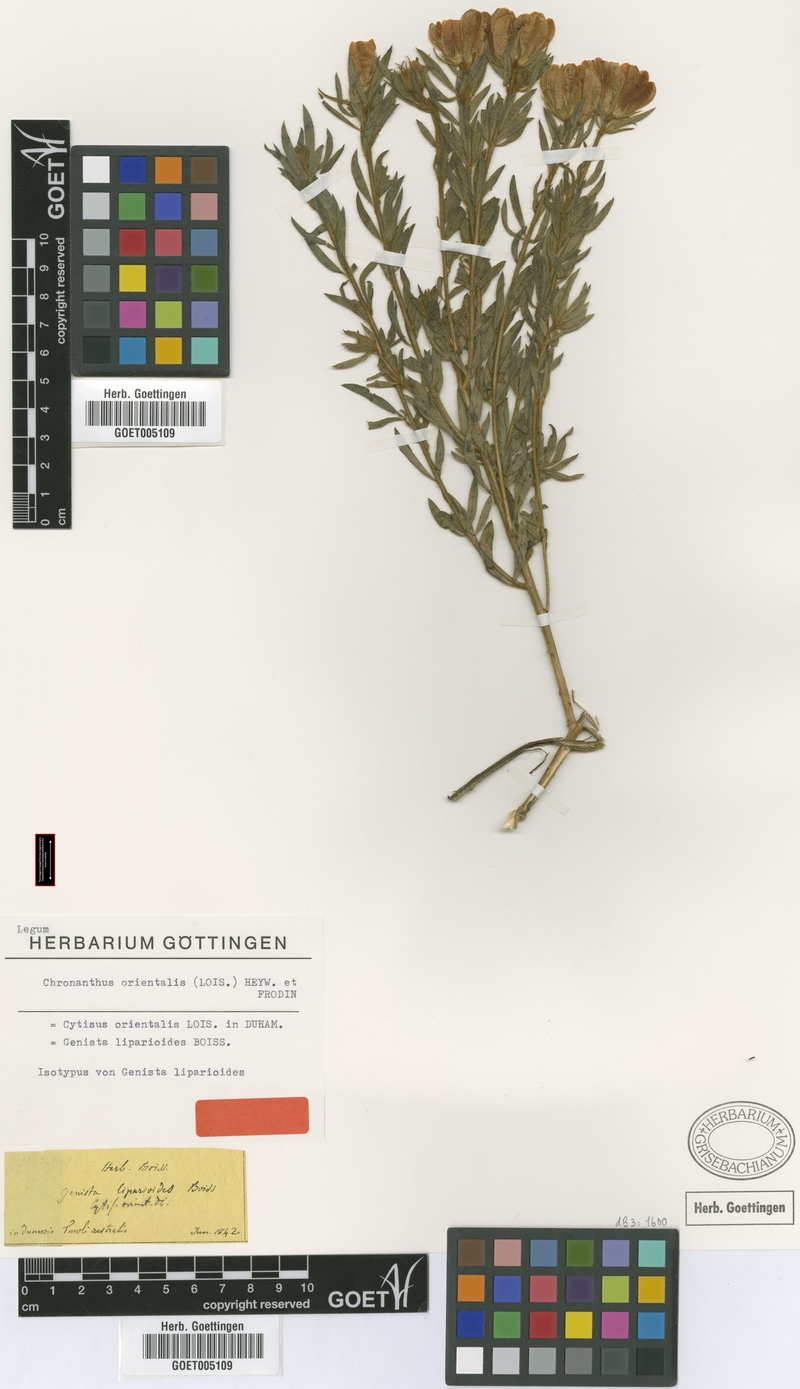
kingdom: Plantae
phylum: Tracheophyta
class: Magnoliopsida
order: Fabales
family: Fabaceae
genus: Cytisus
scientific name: Cytisus orientalis
